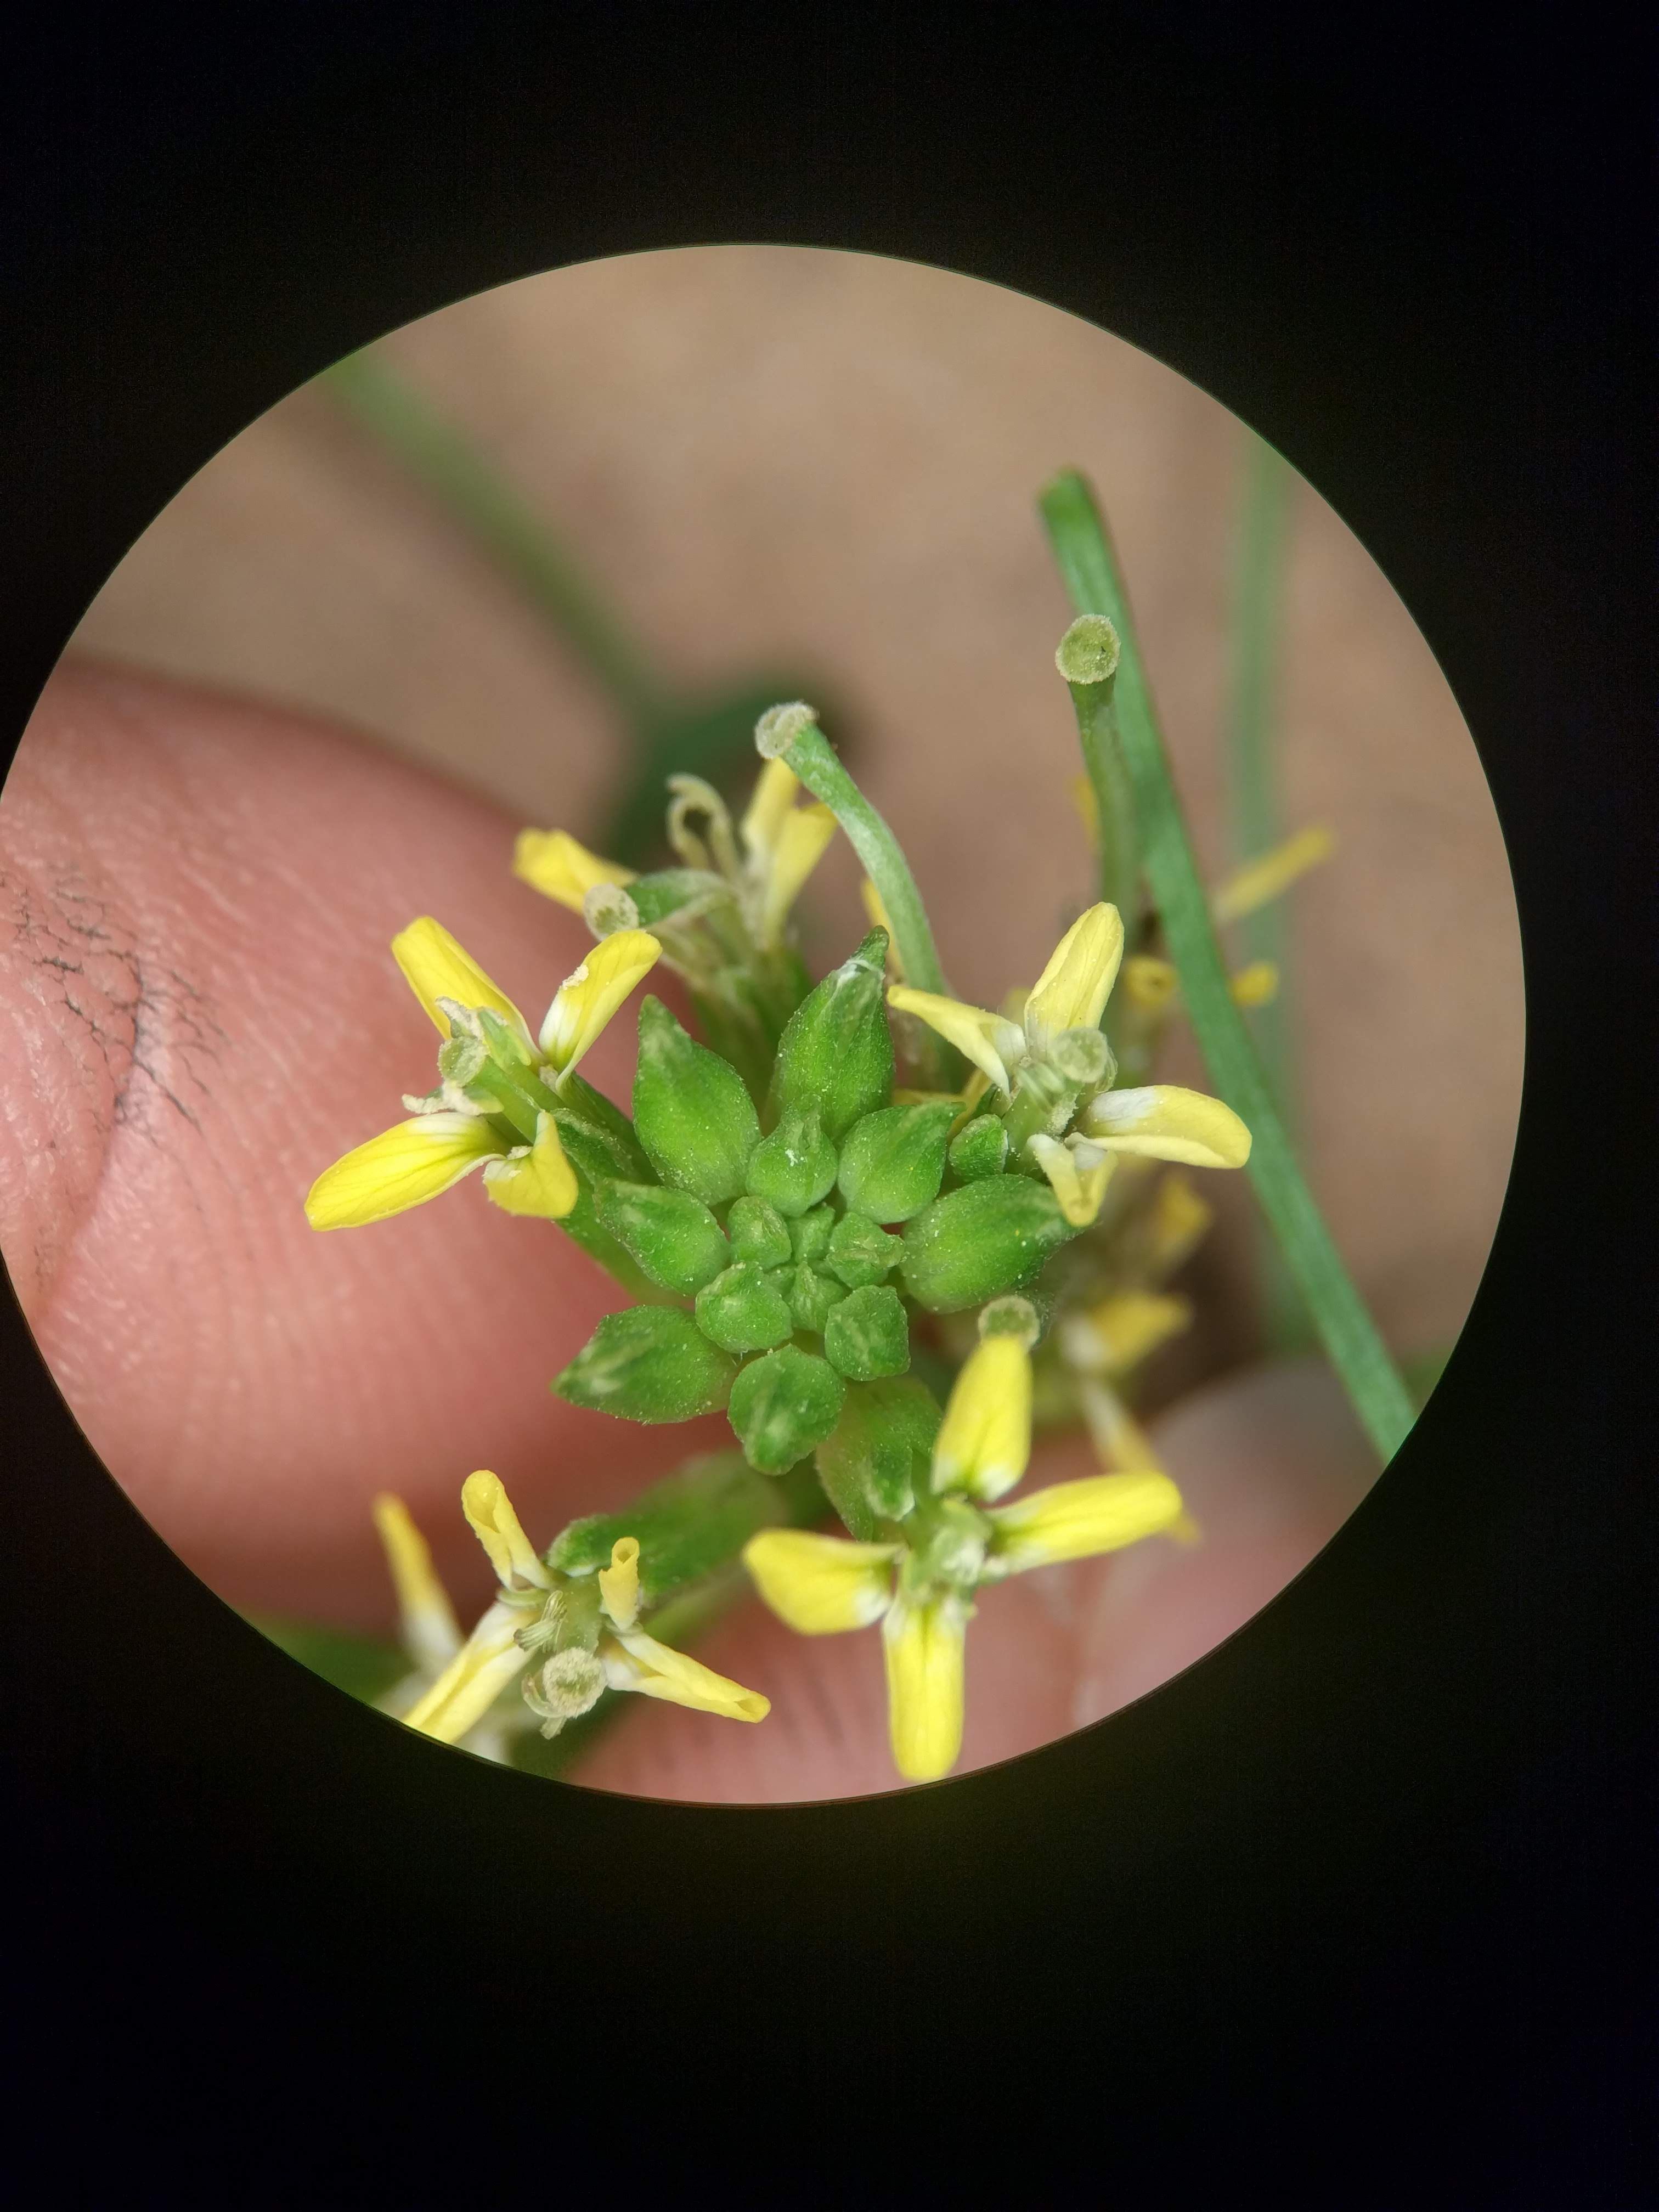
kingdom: Plantae
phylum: Tracheophyta
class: Magnoliopsida
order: Brassicales
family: Brassicaceae
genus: Erysimum
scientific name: Erysimum repandum
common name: Spreading wallflower
